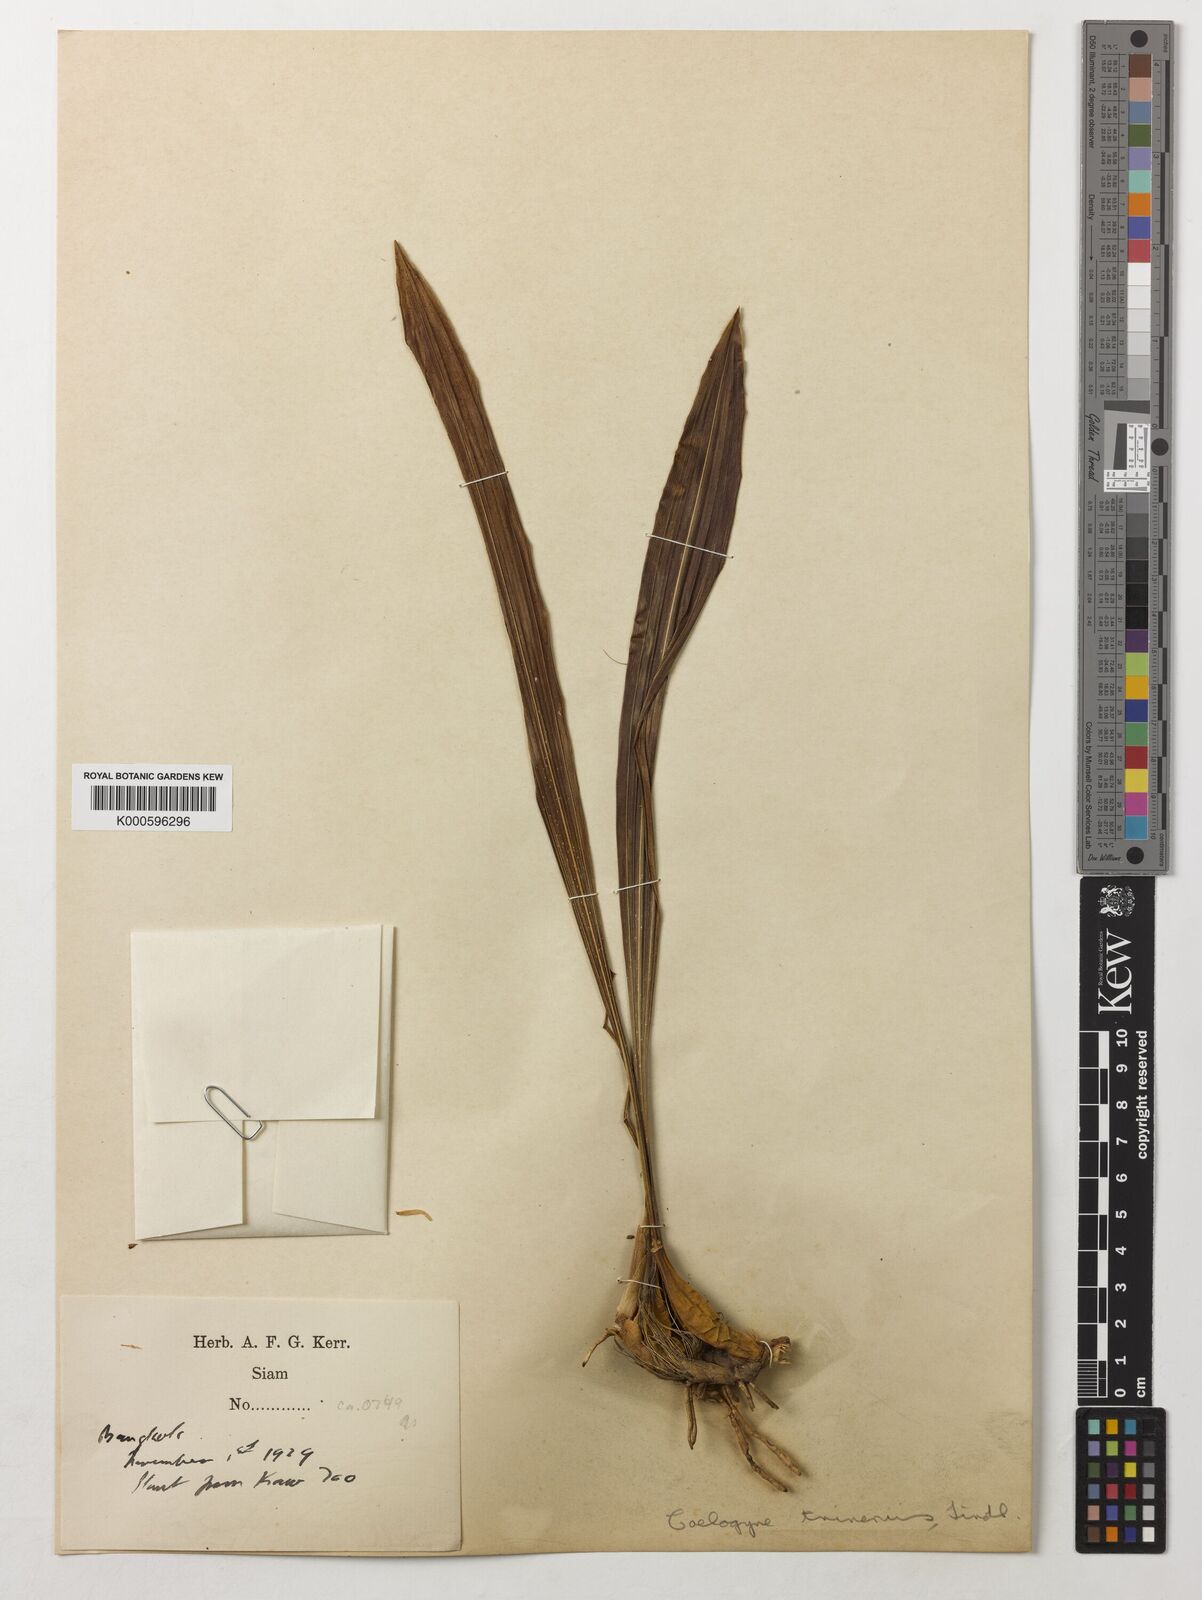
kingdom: Plantae
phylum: Tracheophyta
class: Liliopsida
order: Asparagales
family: Orchidaceae
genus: Coelogyne
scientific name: Coelogyne trinervis
